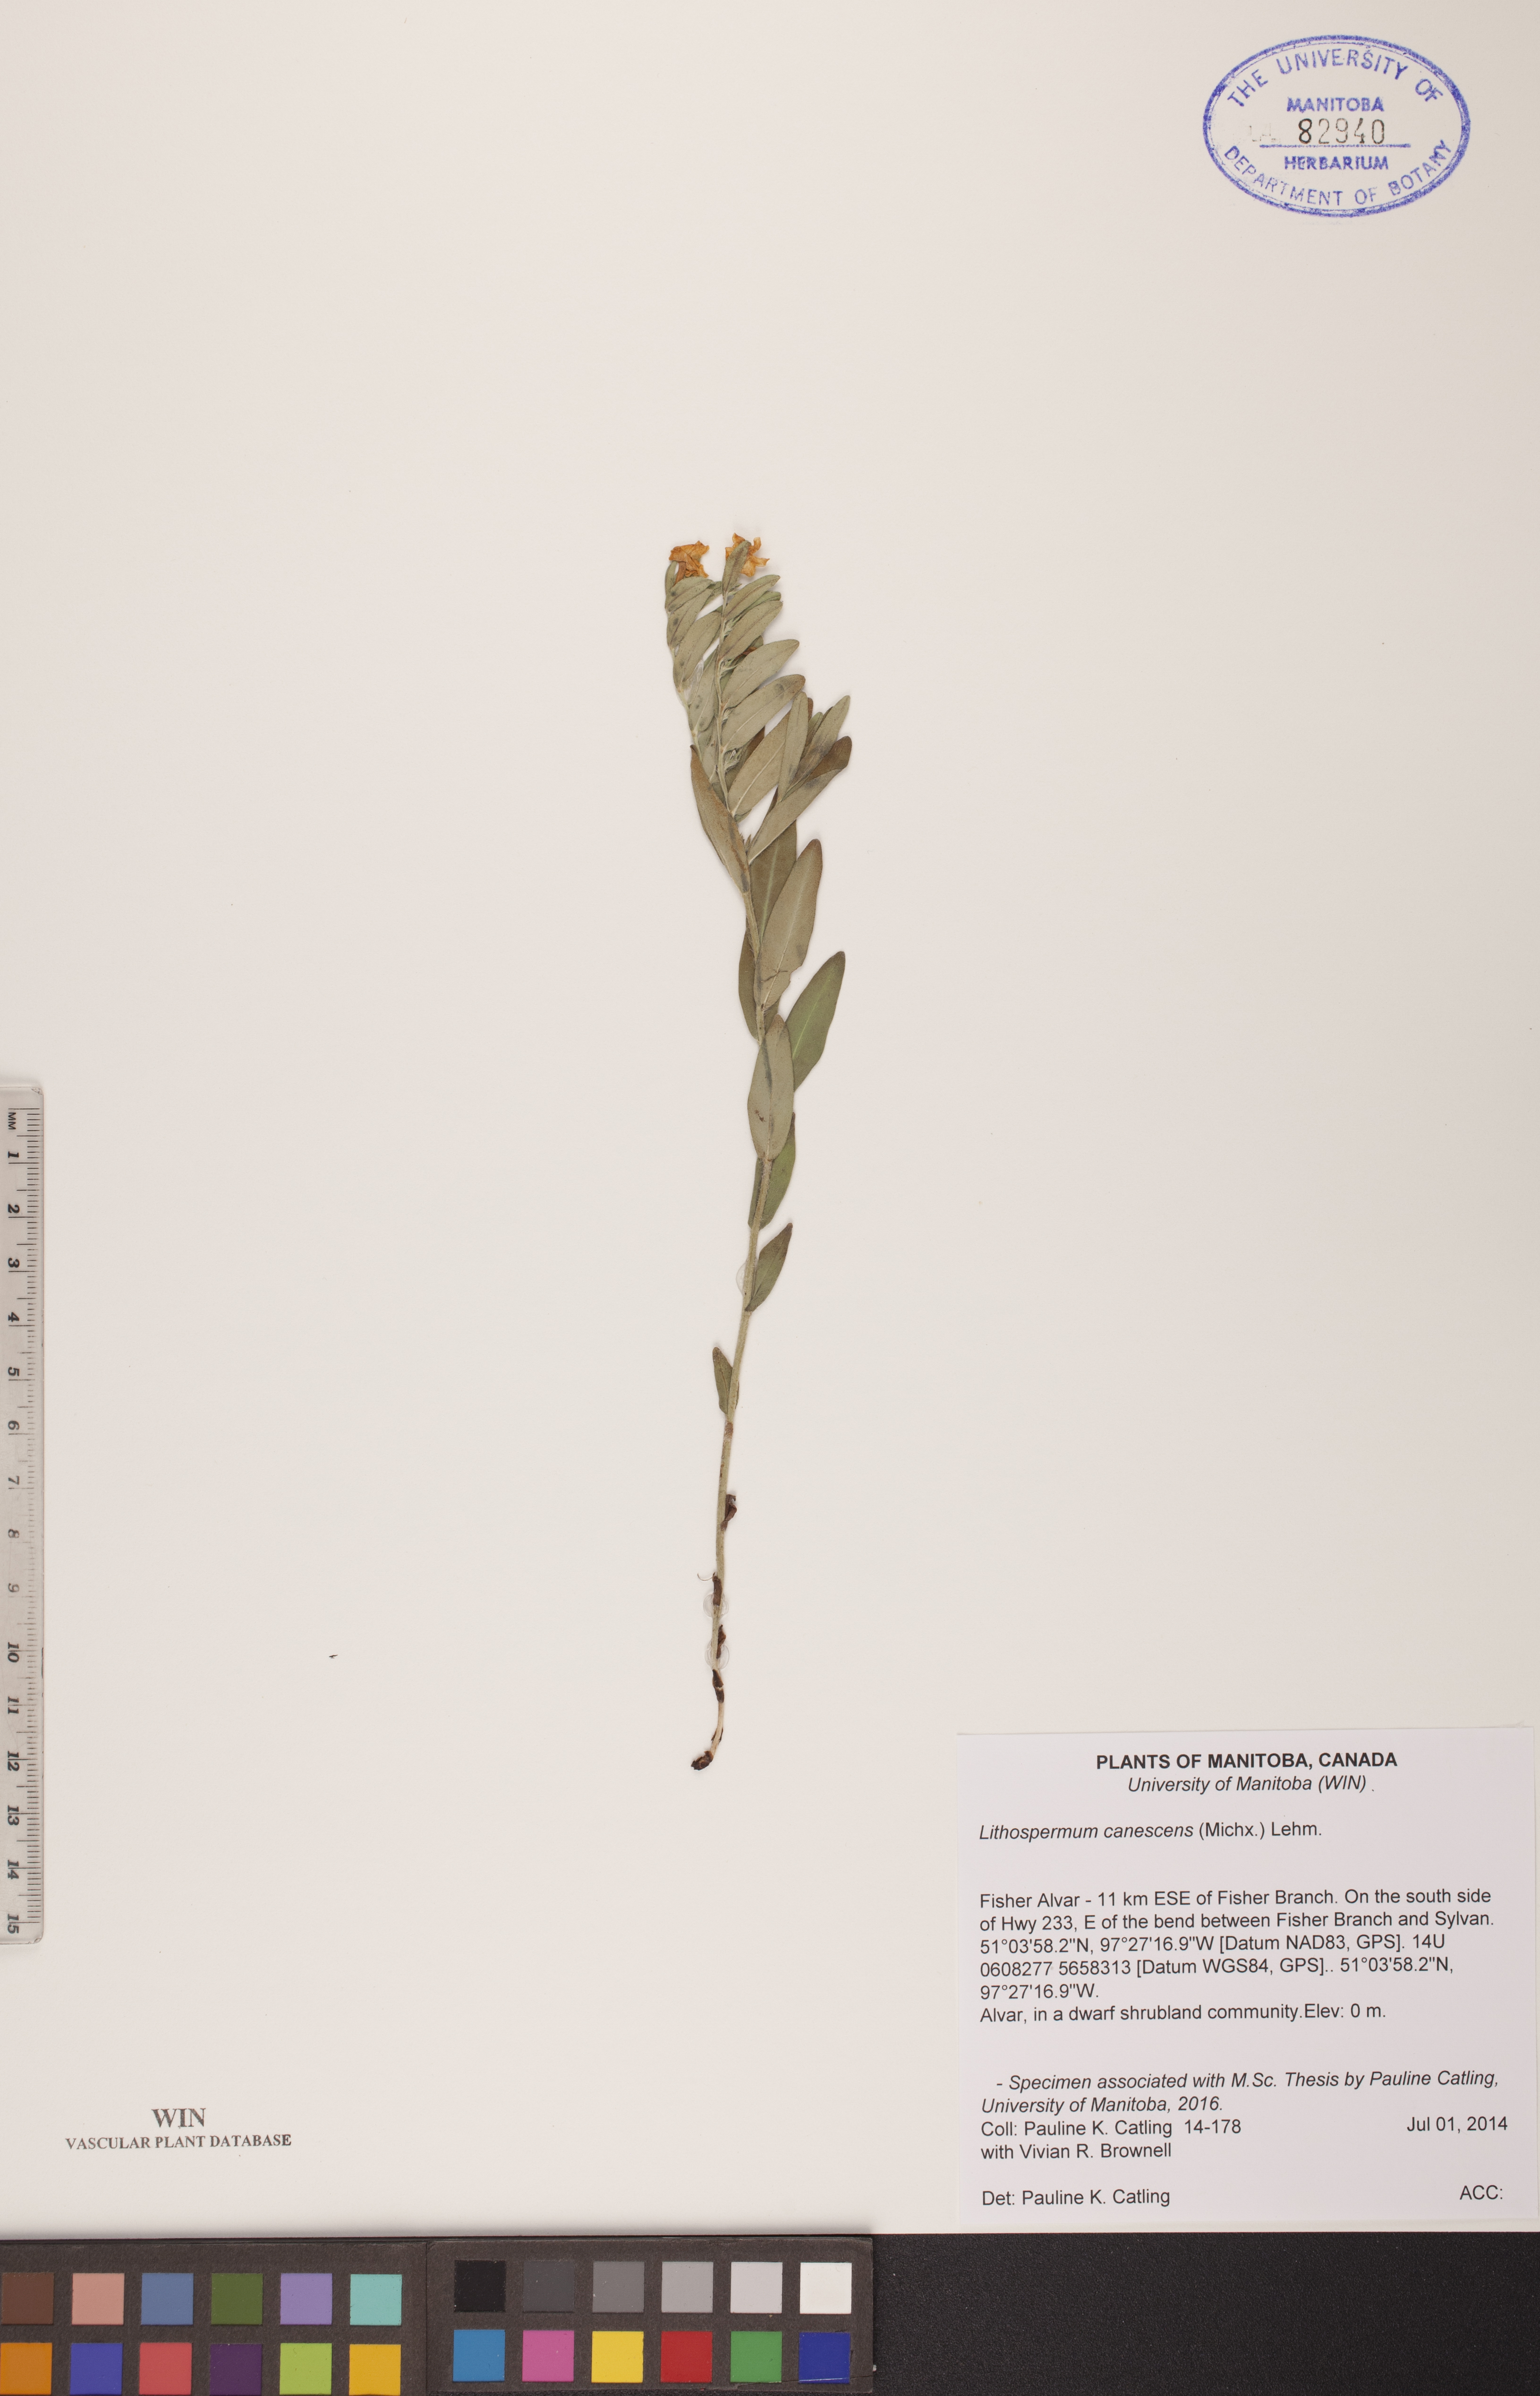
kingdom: Plantae
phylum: Tracheophyta
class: Magnoliopsida
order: Boraginales
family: Boraginaceae
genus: Lithospermum
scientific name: Lithospermum canescens
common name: Hoary puccoon
